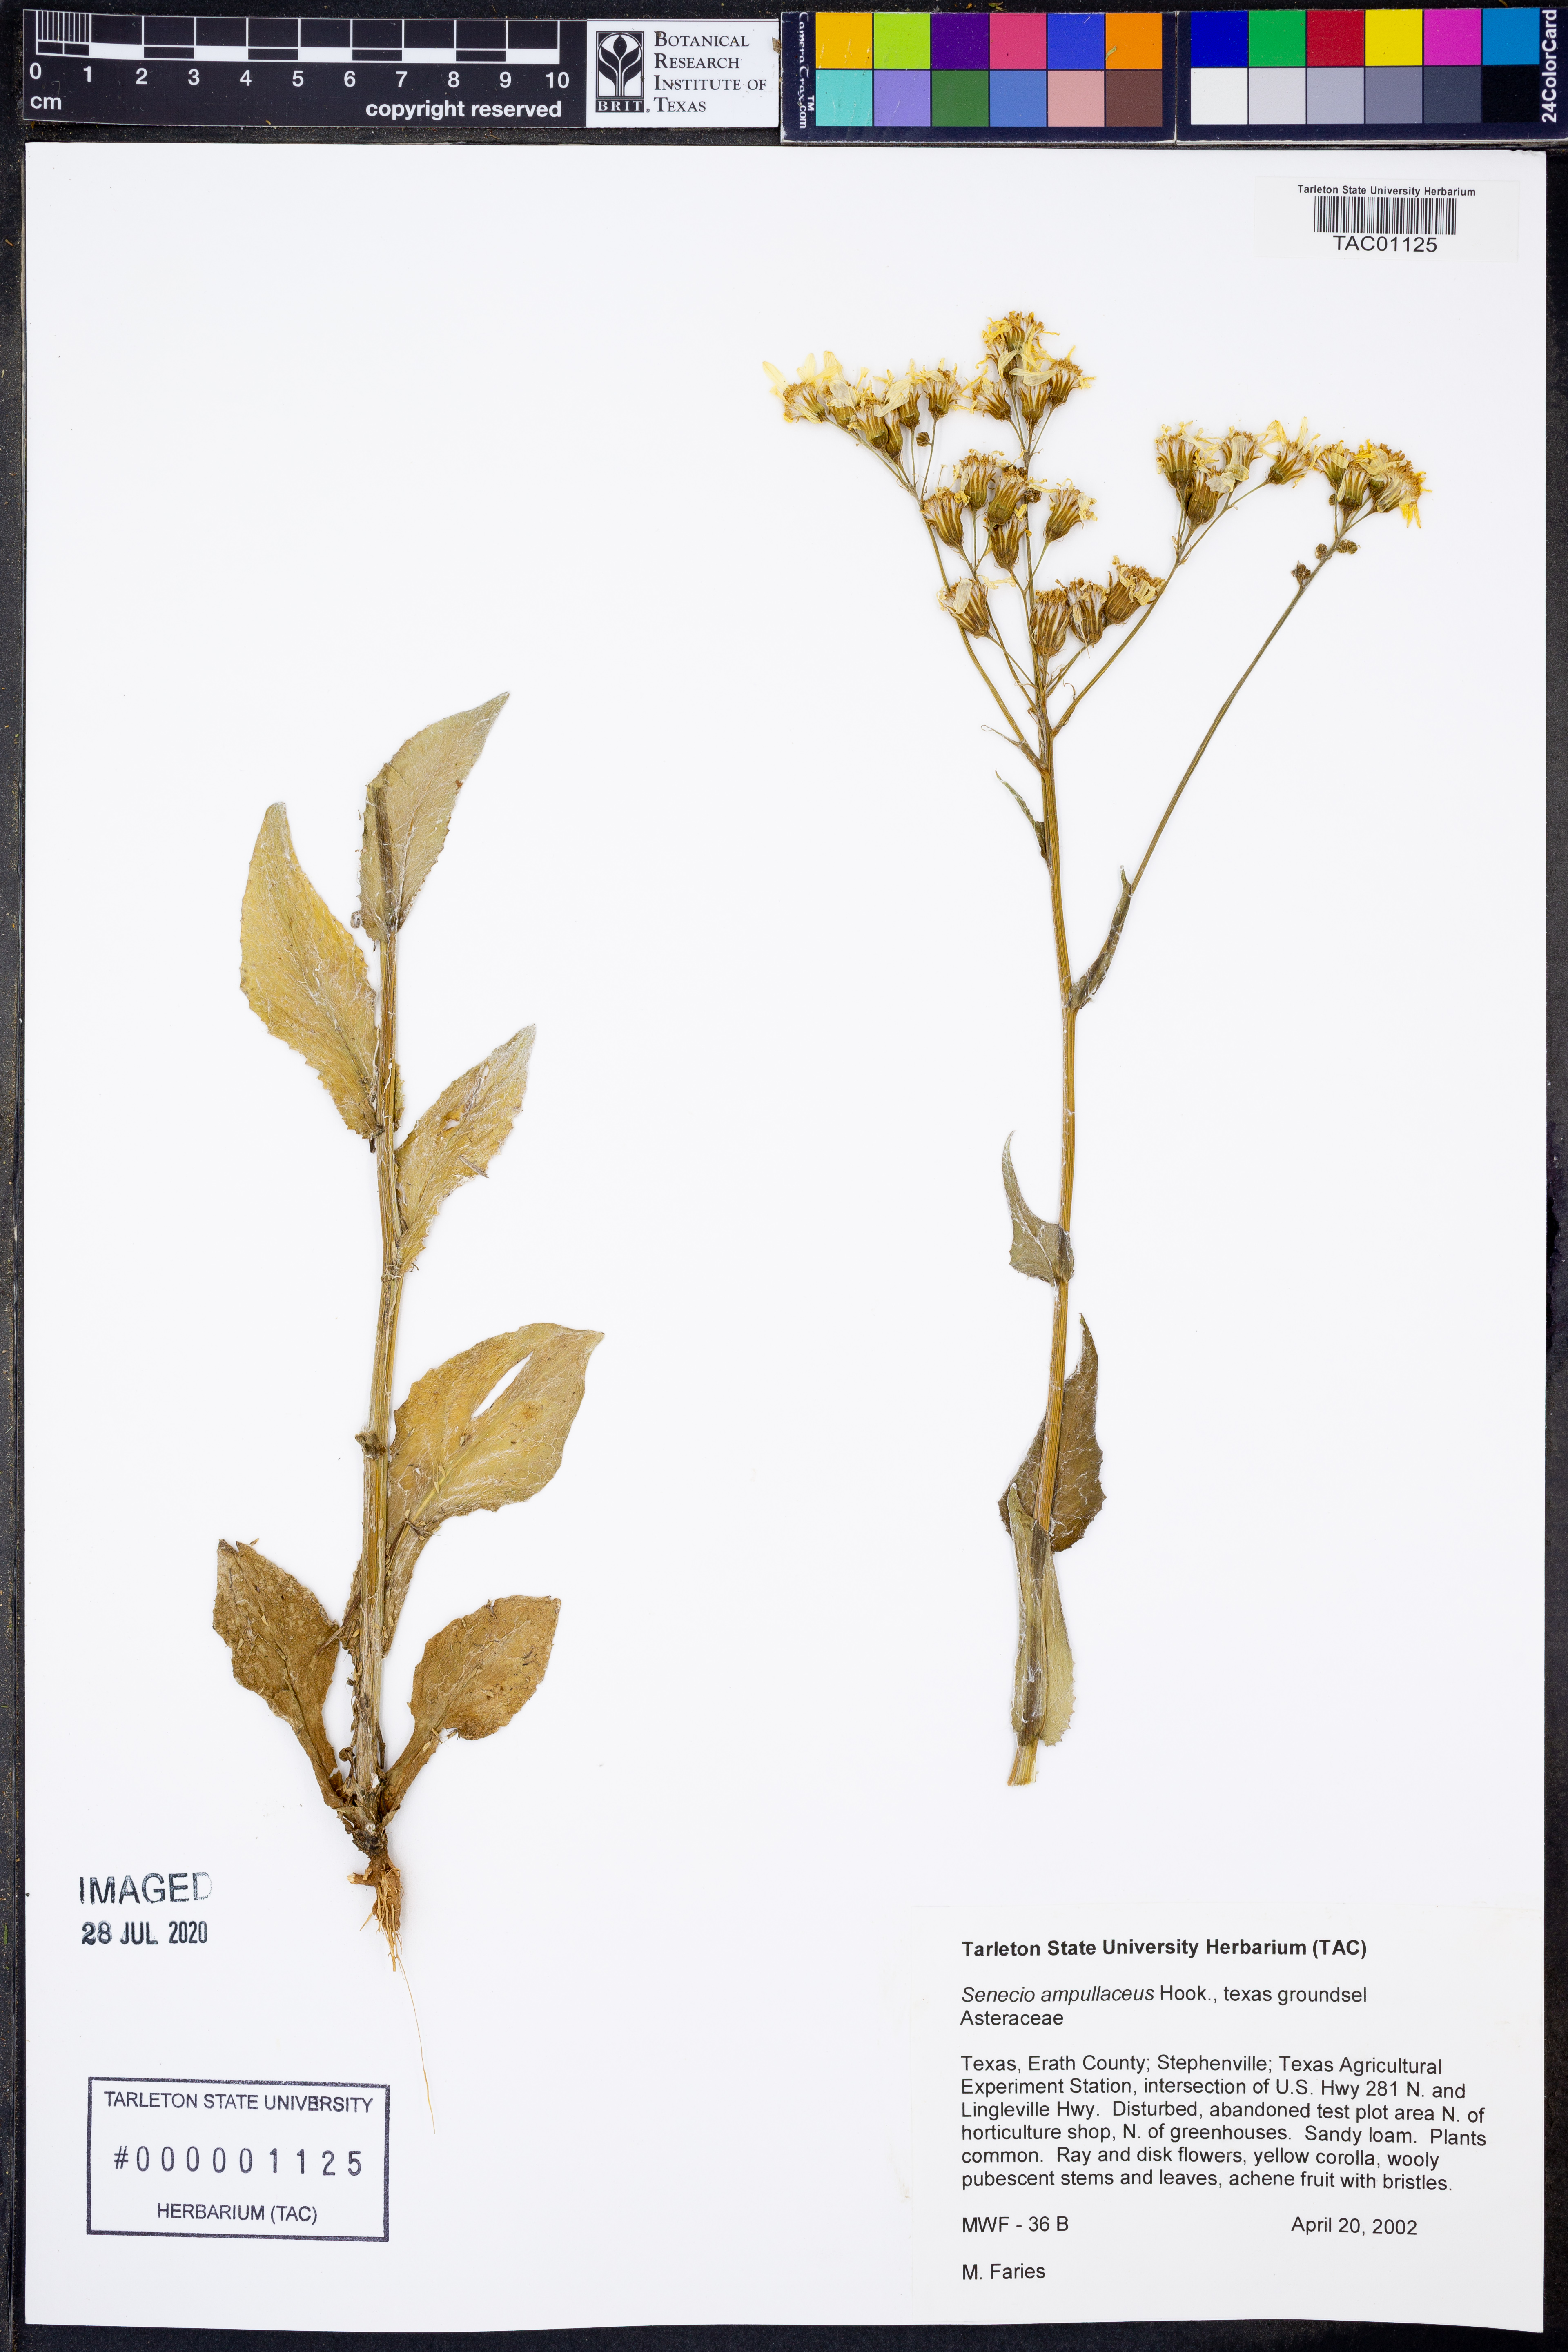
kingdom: Plantae
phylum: Tracheophyta
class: Magnoliopsida
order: Asterales
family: Asteraceae
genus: Senecio
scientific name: Senecio ampullaceus
